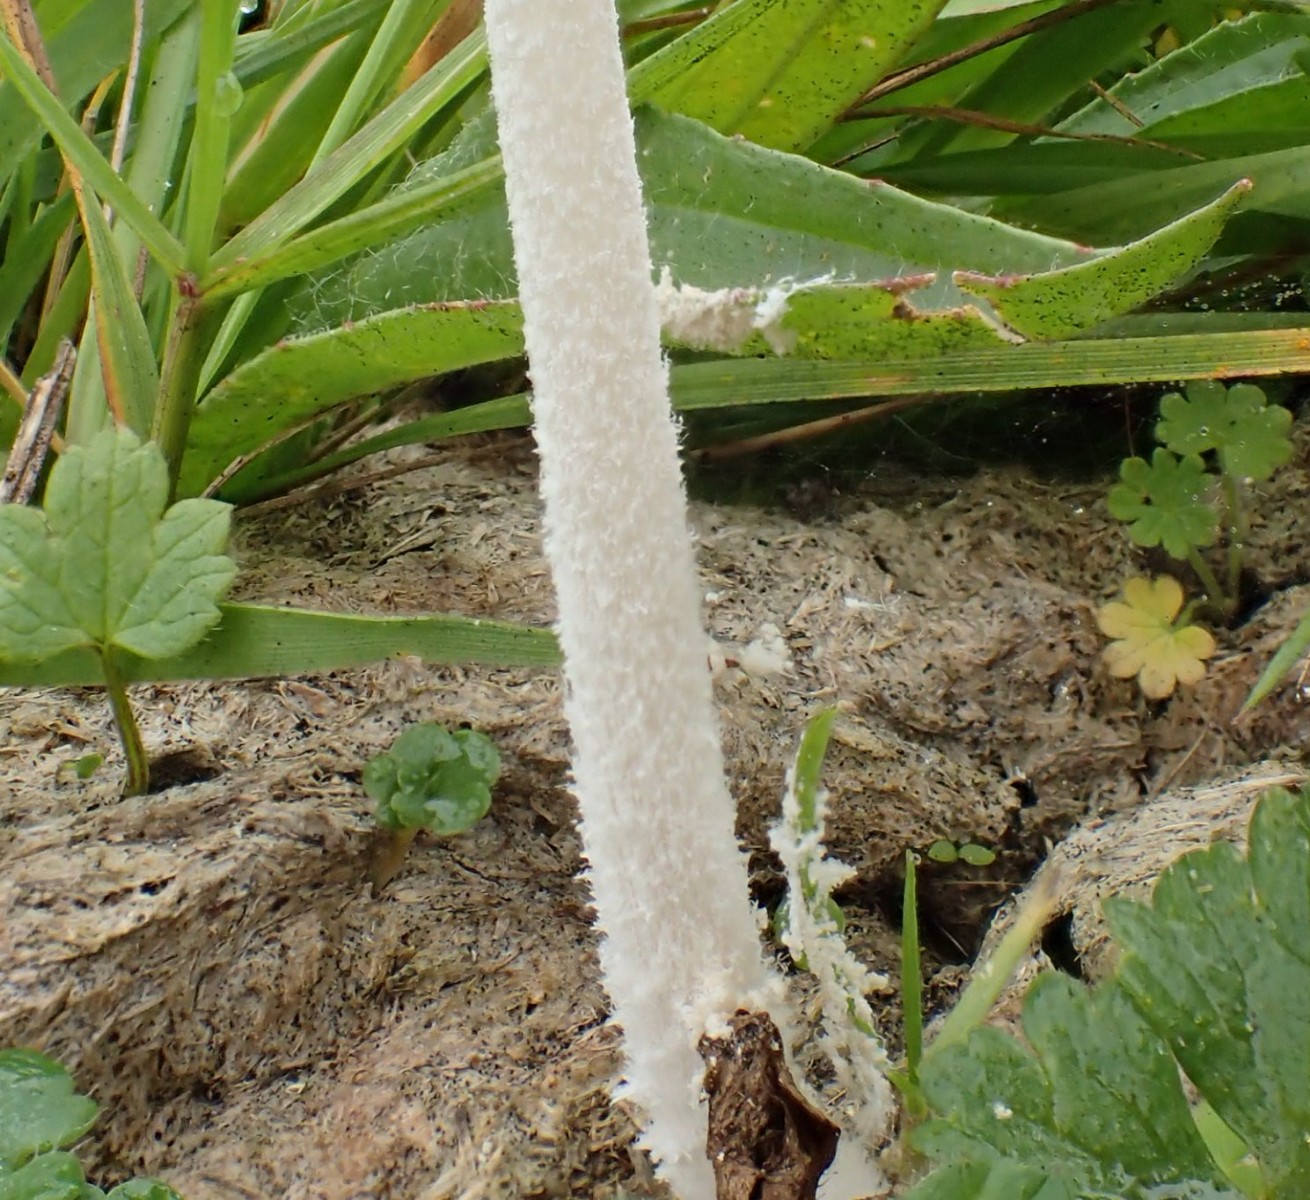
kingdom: Fungi
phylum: Basidiomycota
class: Agaricomycetes
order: Agaricales
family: Psathyrellaceae
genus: Coprinopsis
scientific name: Coprinopsis nivea
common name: snehvid blækhat
